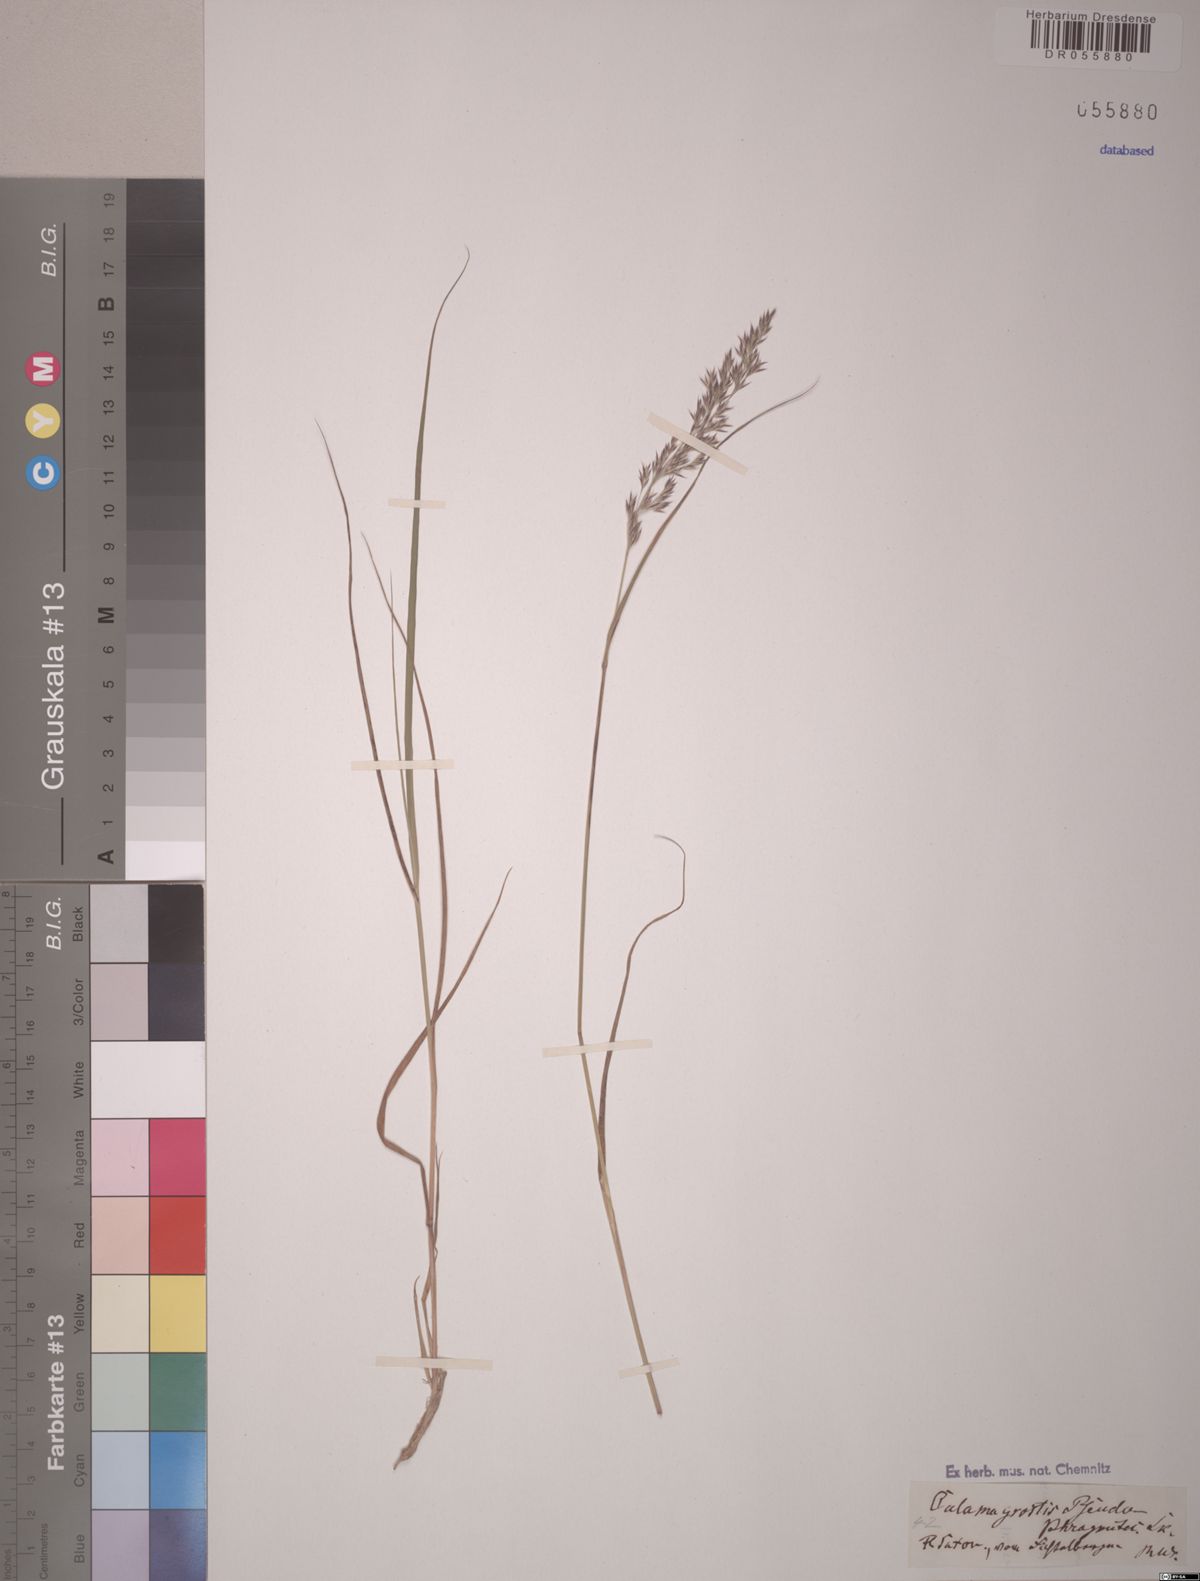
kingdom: Plantae
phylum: Tracheophyta
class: Liliopsida
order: Poales
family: Poaceae
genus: Calamagrostis
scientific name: Calamagrostis pseudophragmites
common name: Coastal small-reed
